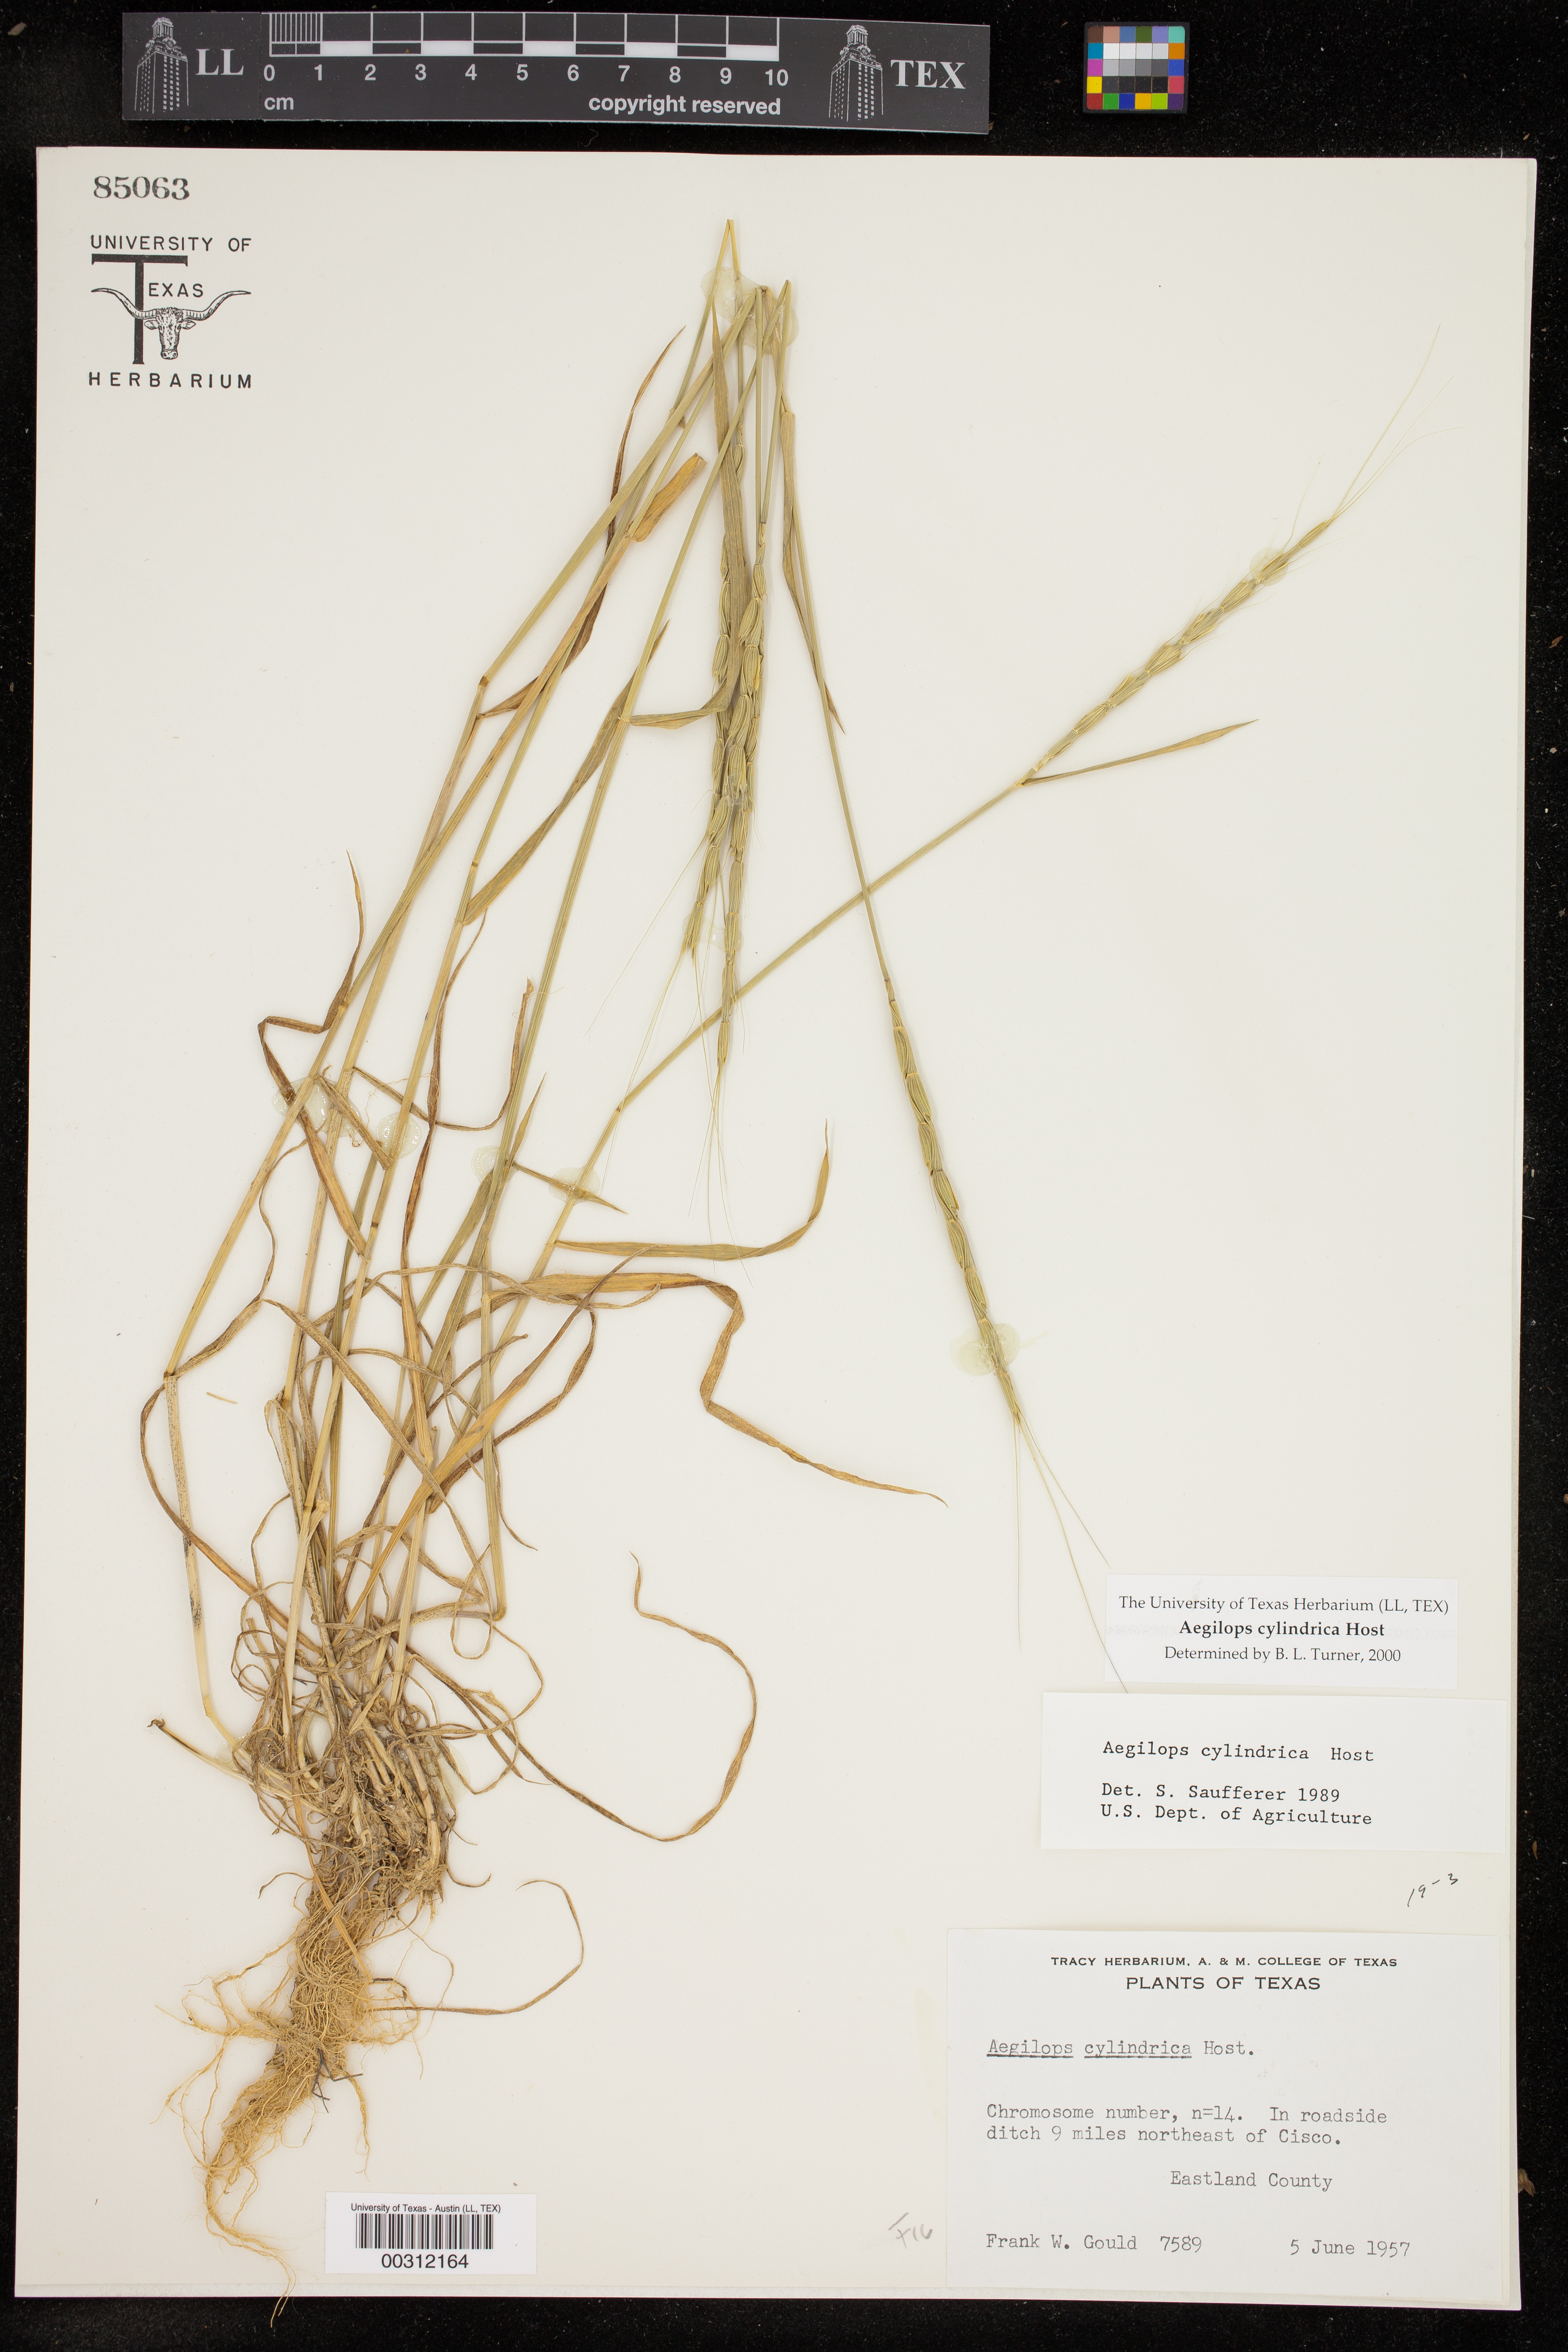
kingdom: Plantae
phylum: Tracheophyta
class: Liliopsida
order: Poales
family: Poaceae
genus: Aegilops
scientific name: Aegilops cylindrica
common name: Jointed goatgrass
